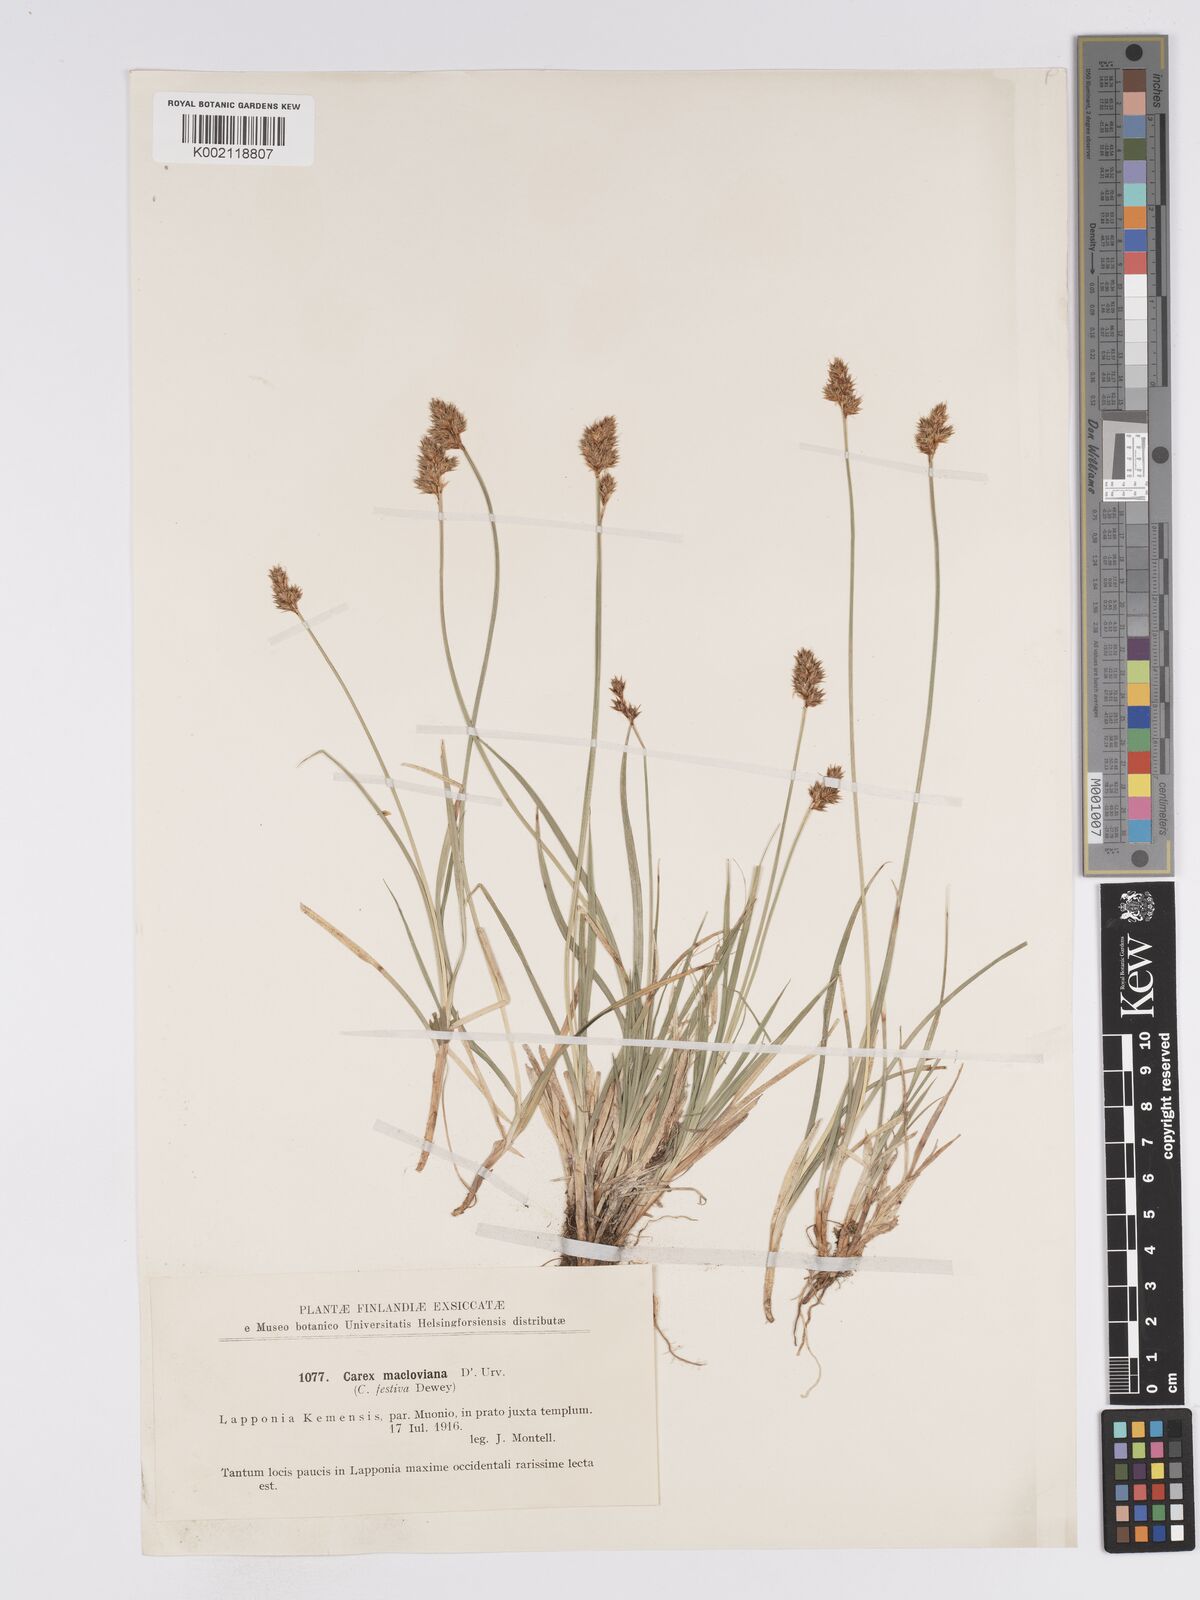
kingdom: Plantae
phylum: Tracheophyta
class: Liliopsida
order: Poales
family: Cyperaceae
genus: Carex
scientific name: Carex macloviana
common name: Falkland island sedge
